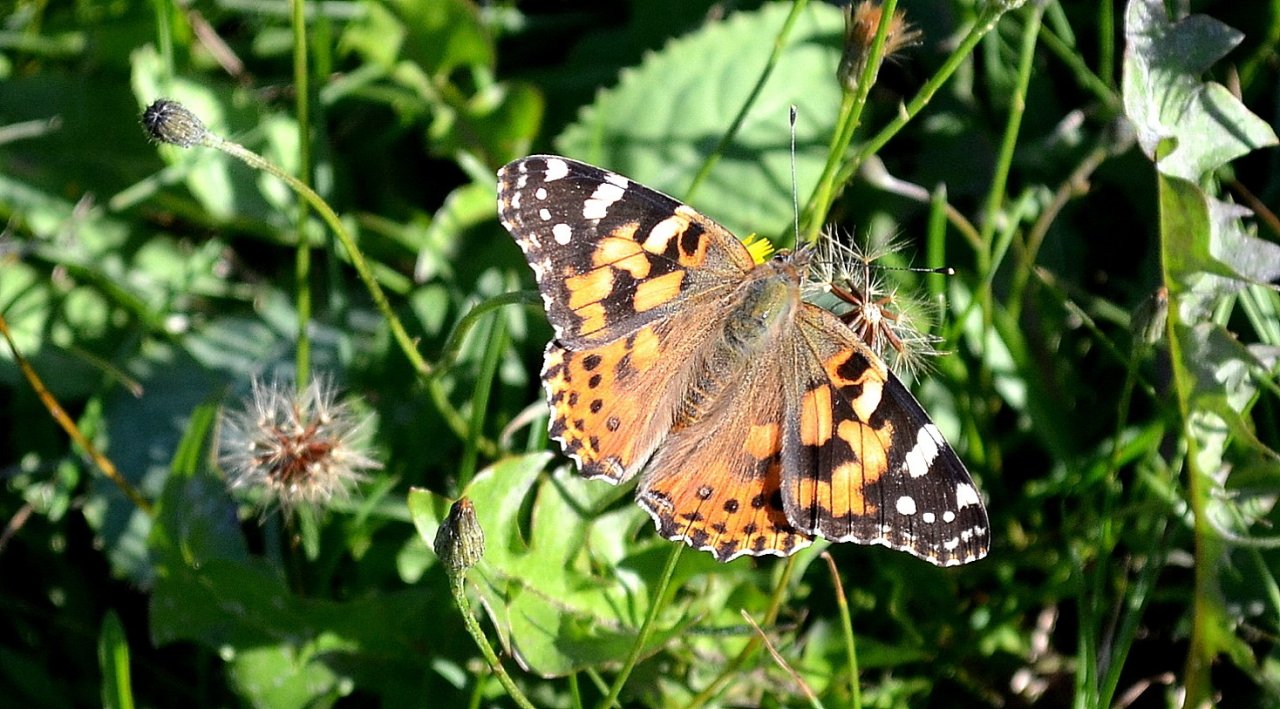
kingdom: Animalia
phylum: Arthropoda
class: Insecta
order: Lepidoptera
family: Nymphalidae
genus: Vanessa
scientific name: Vanessa cardui
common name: Painted Lady
